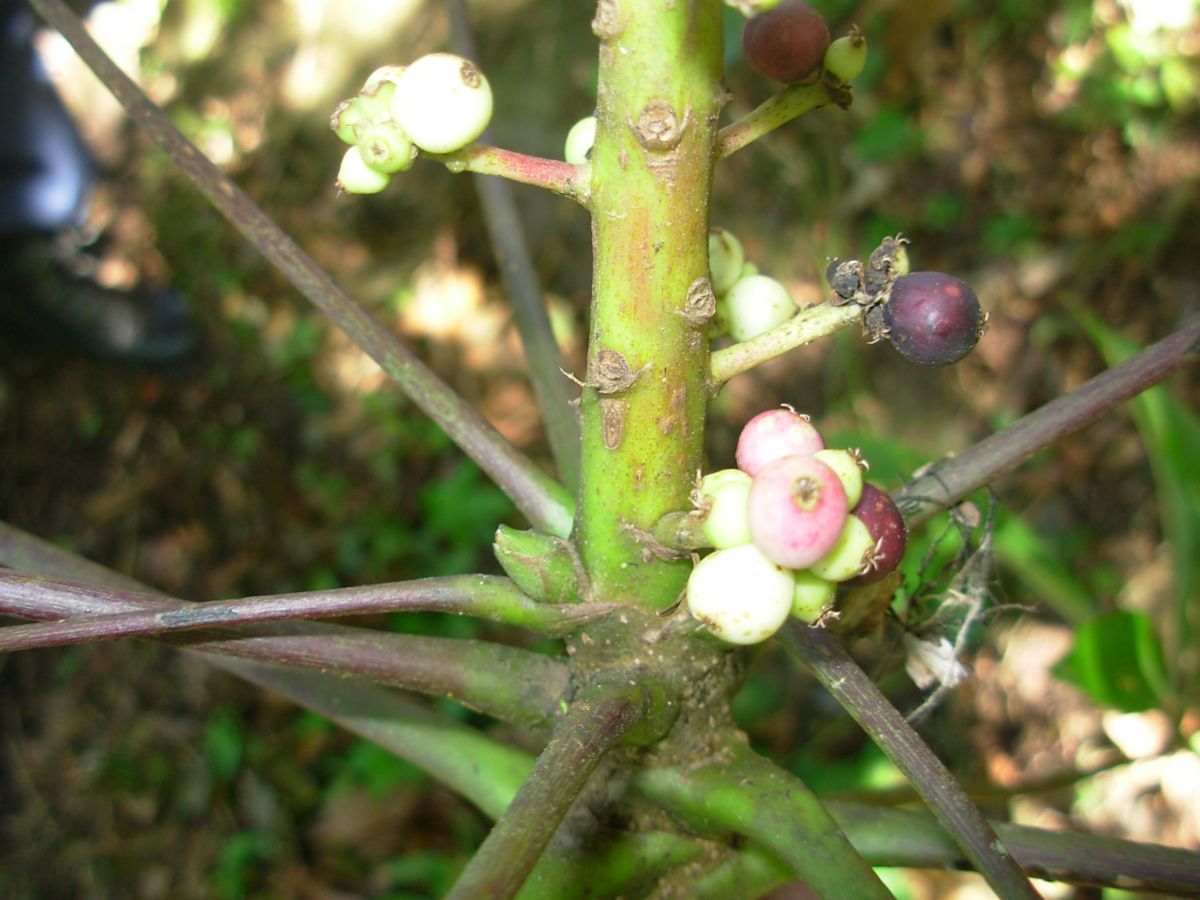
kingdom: Plantae
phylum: Tracheophyta
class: Magnoliopsida
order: Apiales
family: Araliaceae
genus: Oreopanax
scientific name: Oreopanax xalapensis
